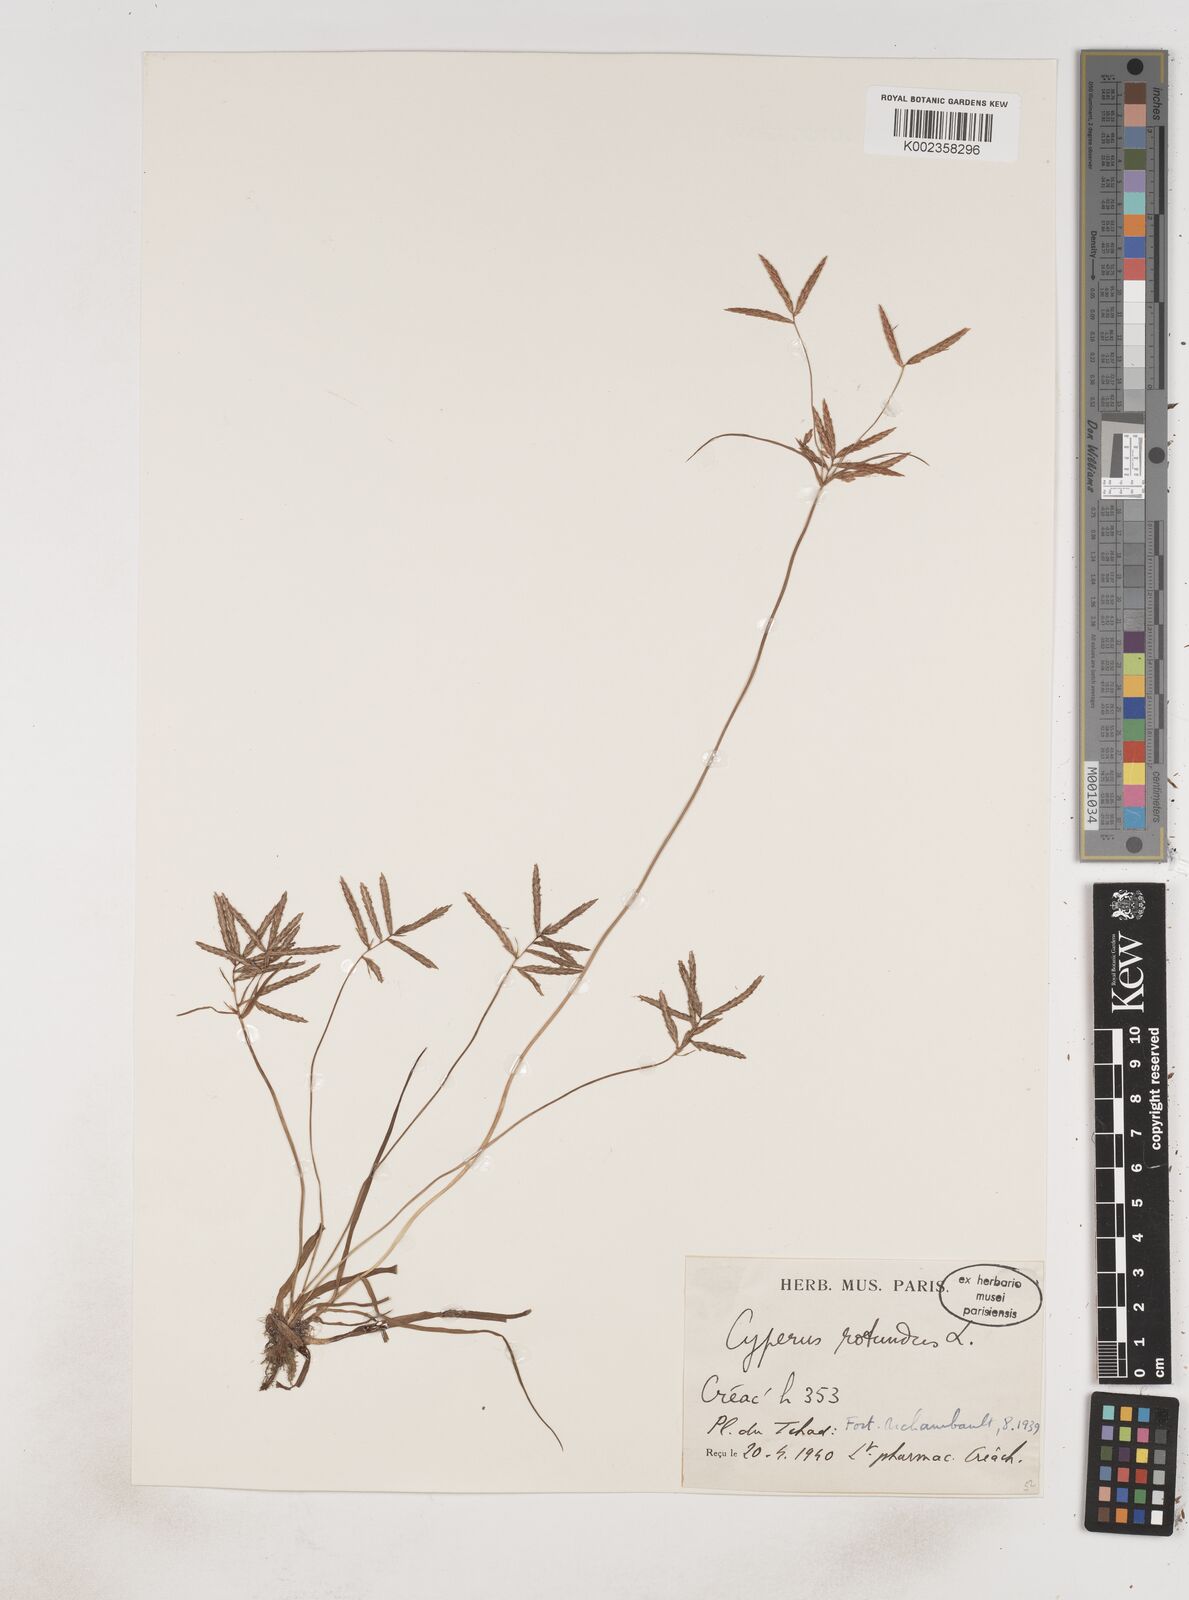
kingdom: Plantae
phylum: Tracheophyta
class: Liliopsida
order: Poales
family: Cyperaceae
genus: Cyperus
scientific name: Cyperus rotundus
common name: Nutgrass
